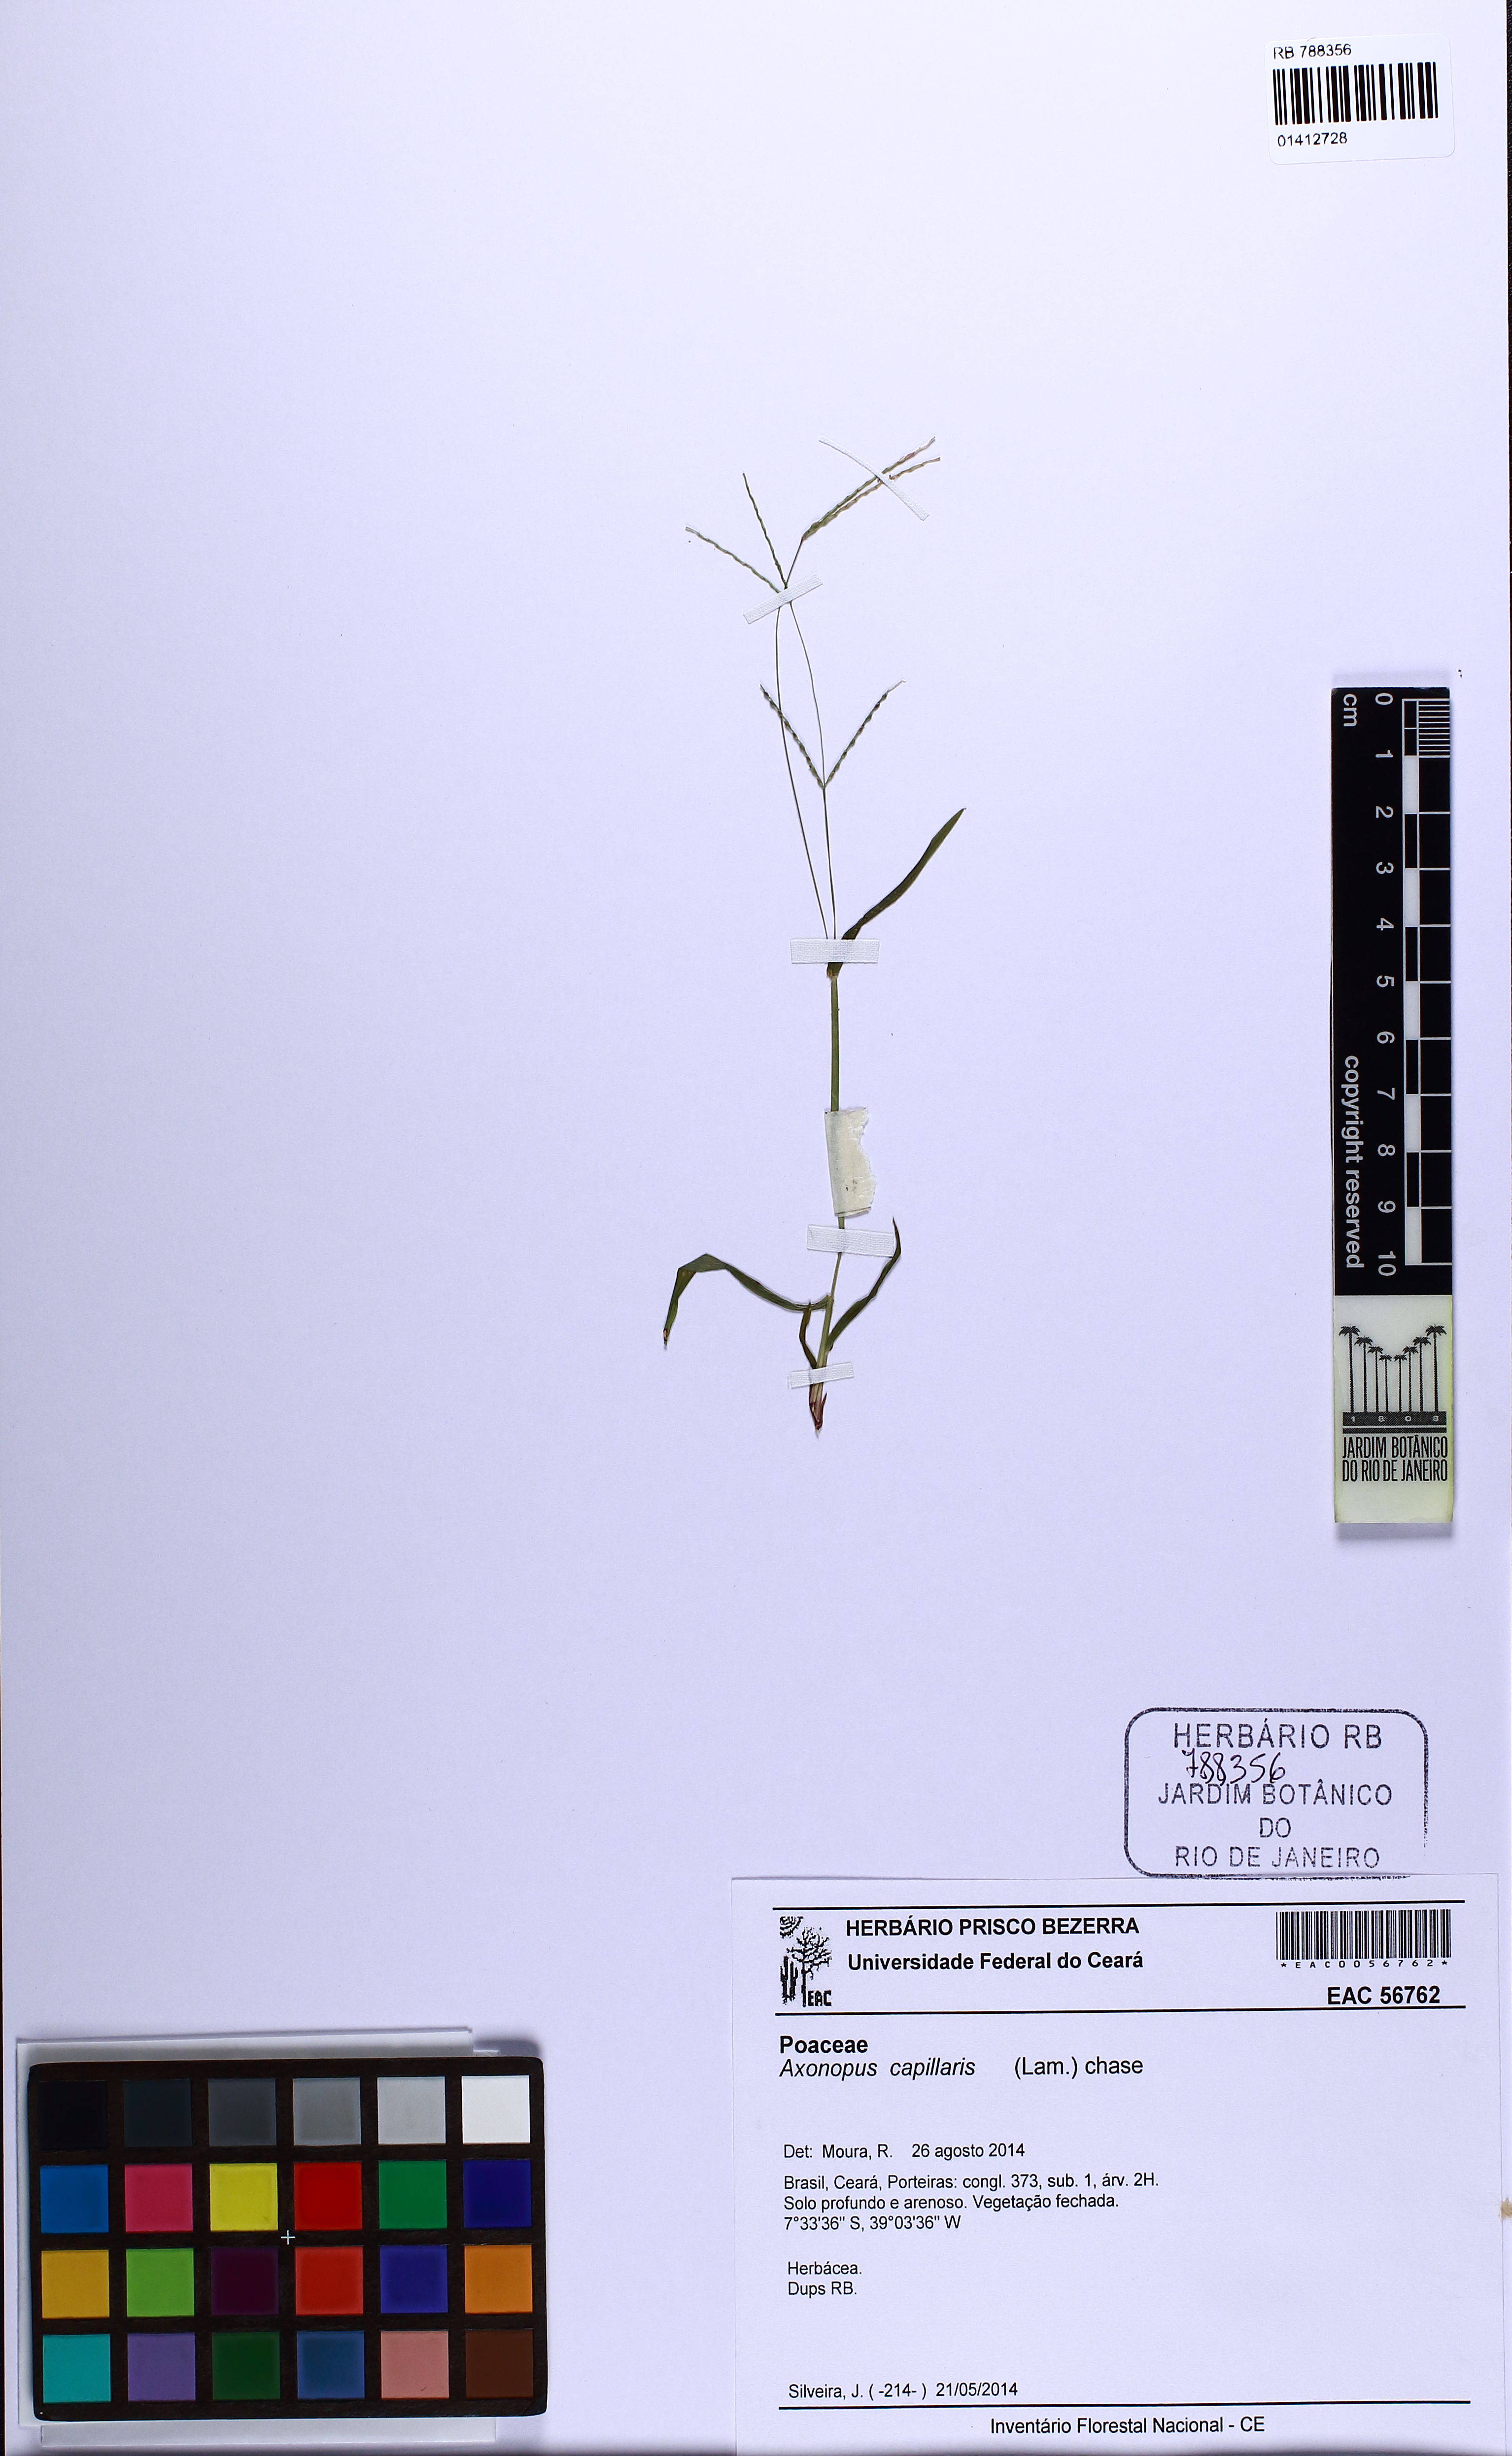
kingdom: Plantae
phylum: Tracheophyta
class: Liliopsida
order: Poales
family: Poaceae
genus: Axonopus
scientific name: Axonopus capillaris
